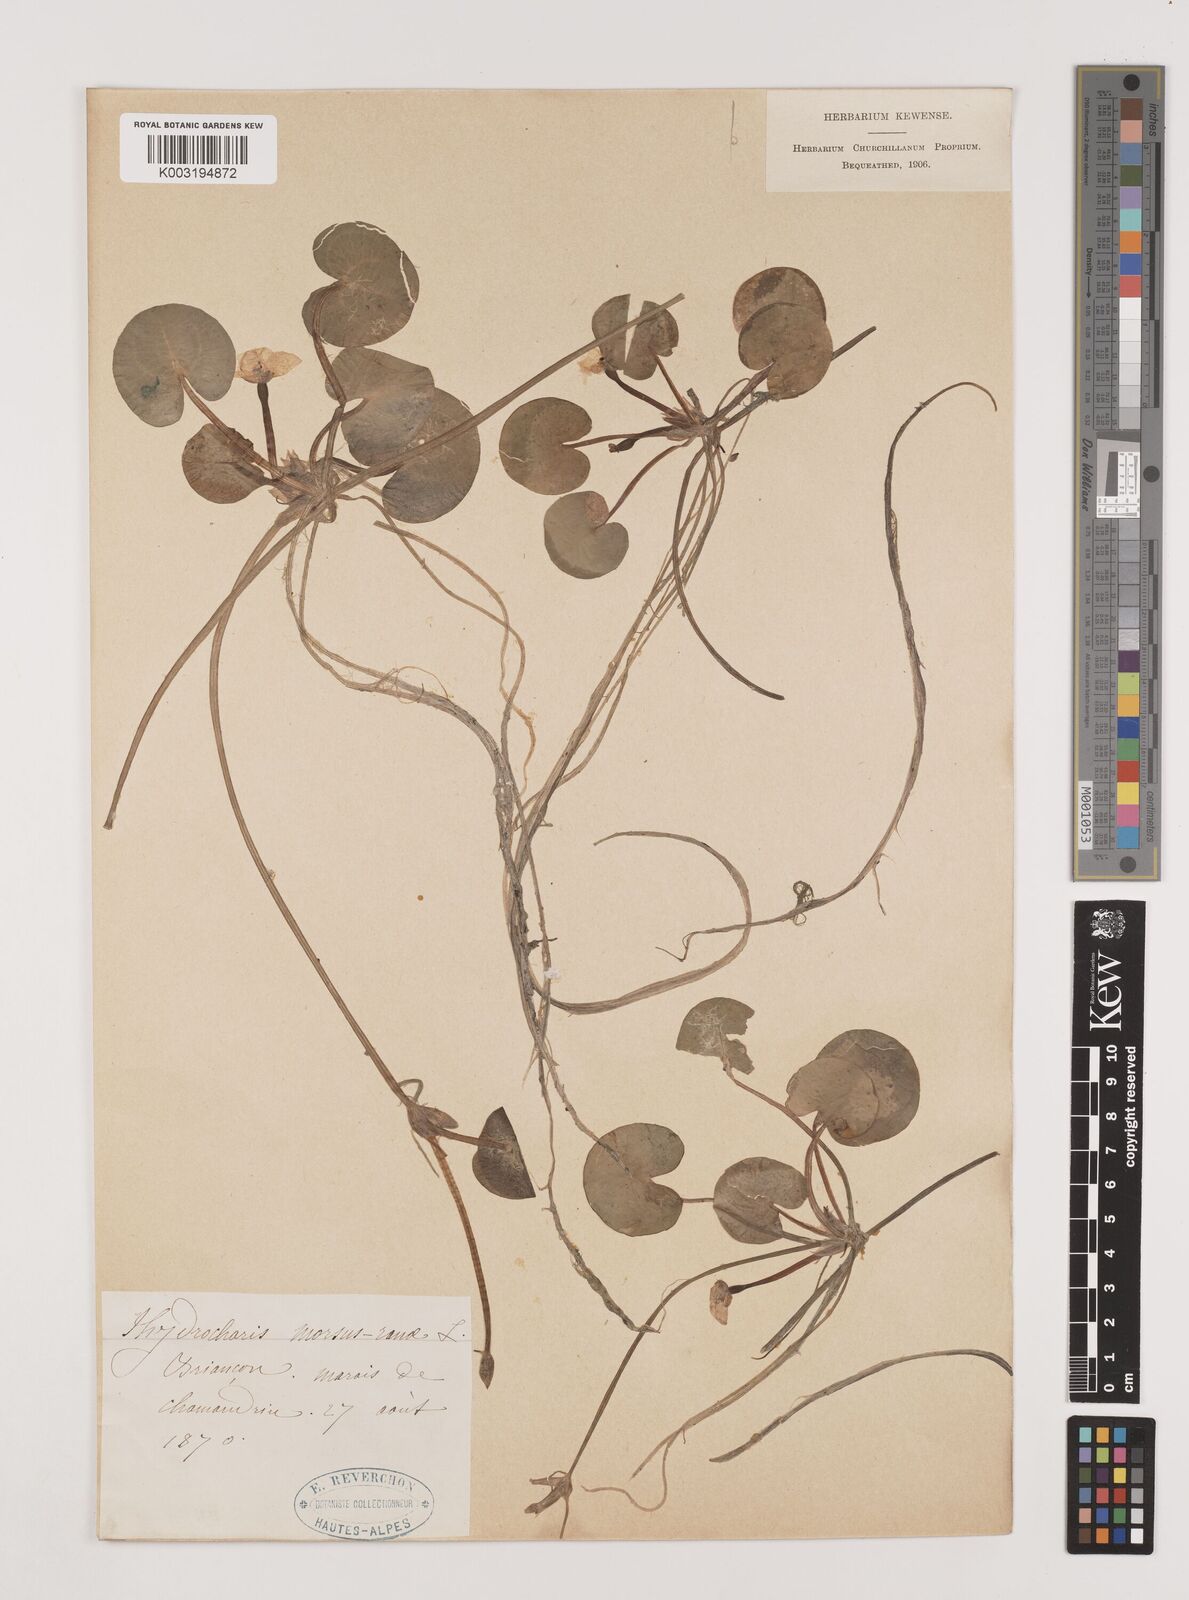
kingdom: Plantae
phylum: Tracheophyta
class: Liliopsida
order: Alismatales
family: Hydrocharitaceae
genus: Hydrocharis
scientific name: Hydrocharis morsus-ranae
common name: Frogbit
